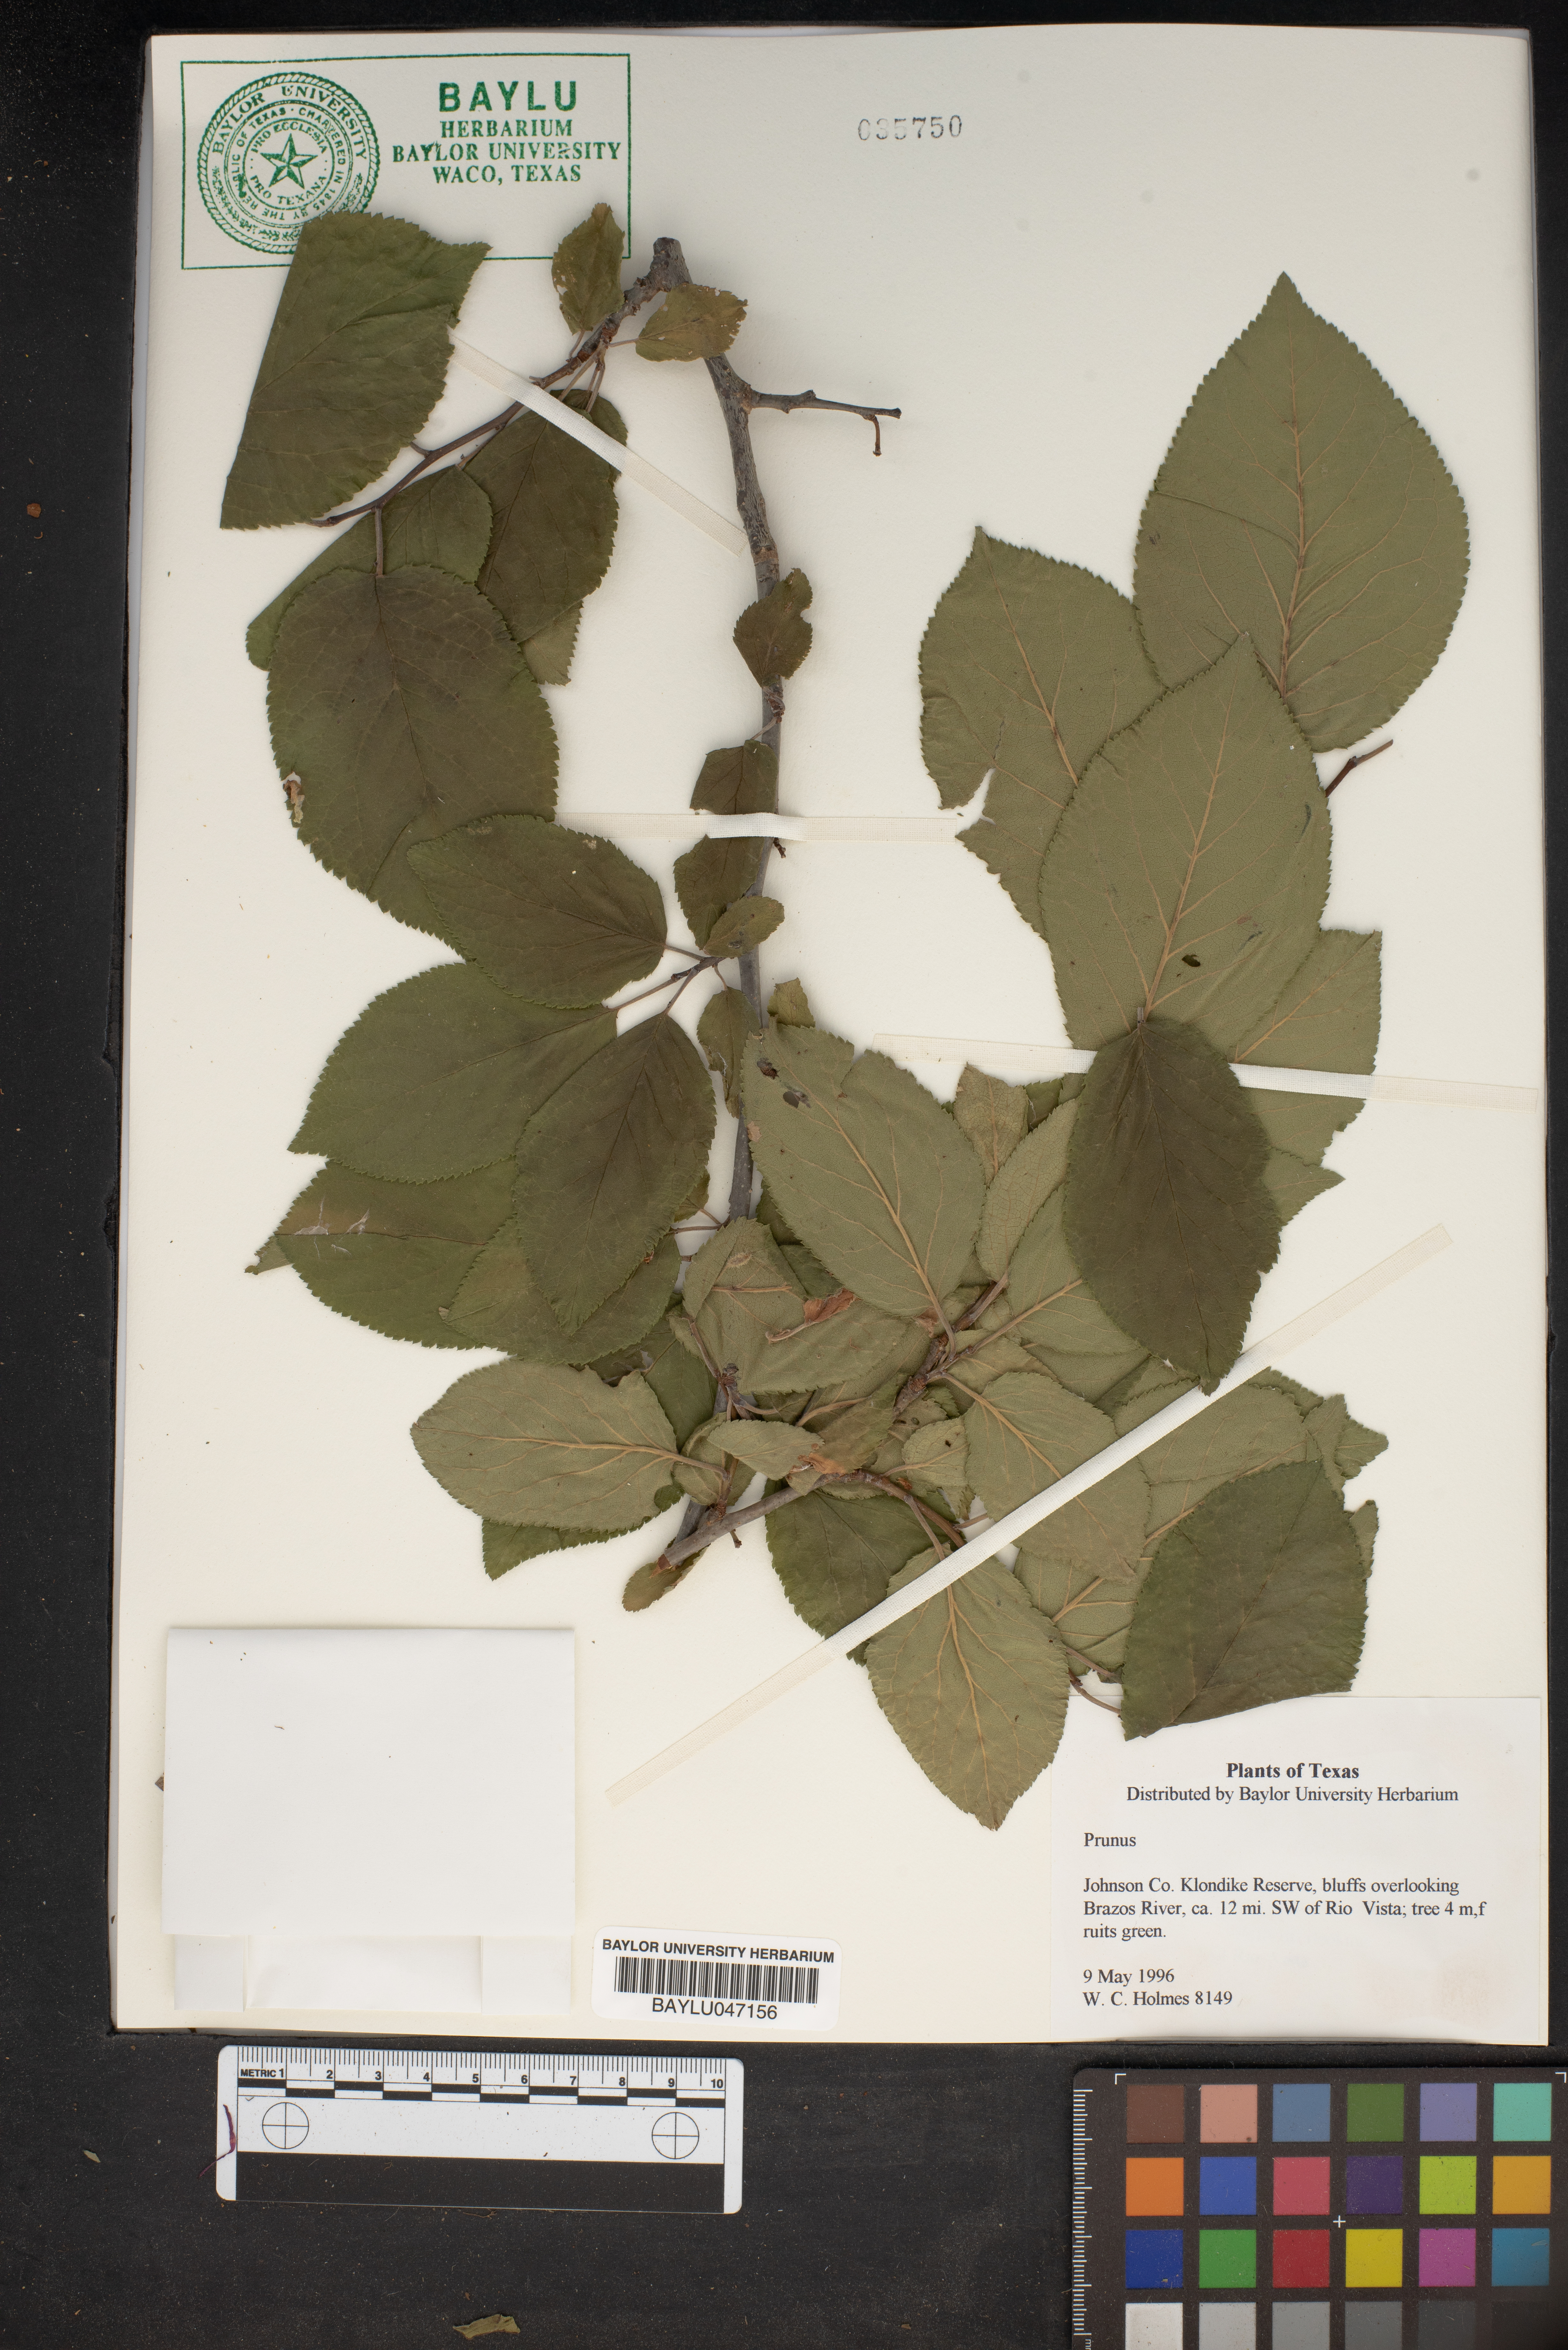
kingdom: Plantae
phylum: Tracheophyta
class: Magnoliopsida
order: Rosales
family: Rosaceae
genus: Prunus
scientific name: Prunus
